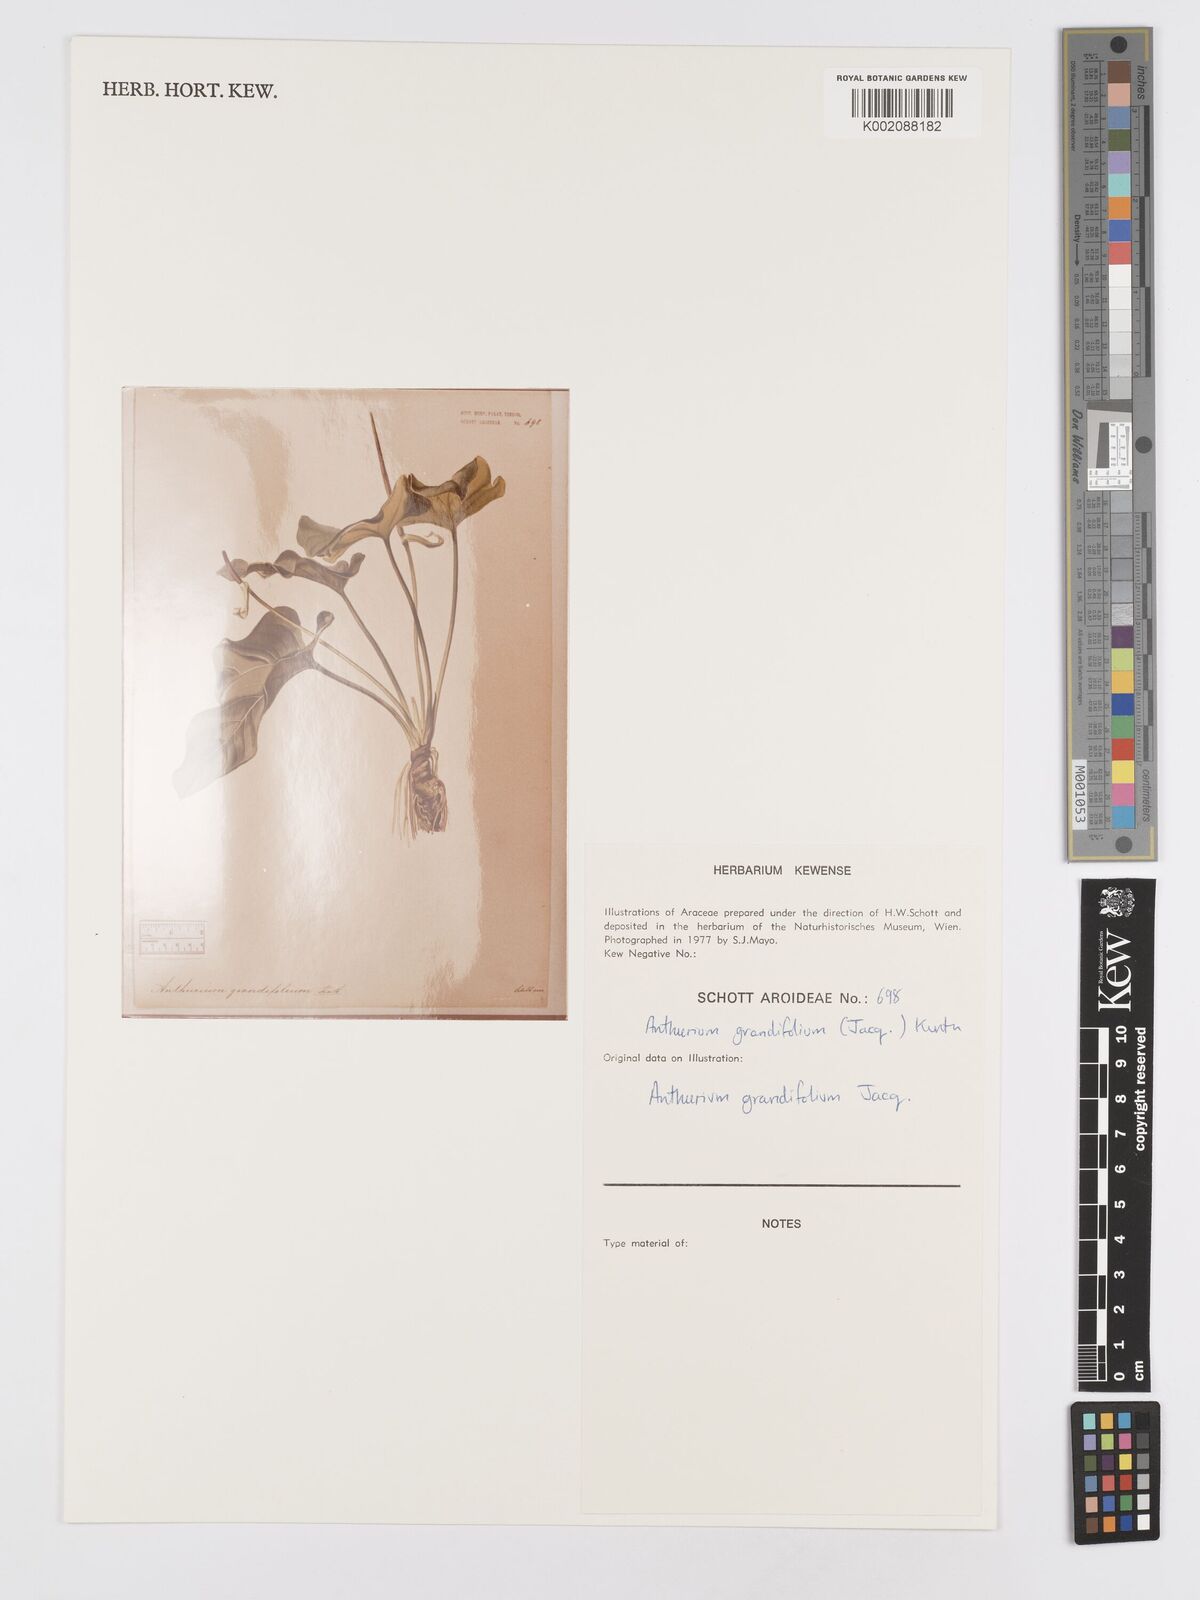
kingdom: Plantae
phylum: Tracheophyta
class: Liliopsida
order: Alismatales
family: Araceae
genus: Anthurium
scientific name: Anthurium grandifolium
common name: Monkey tail
